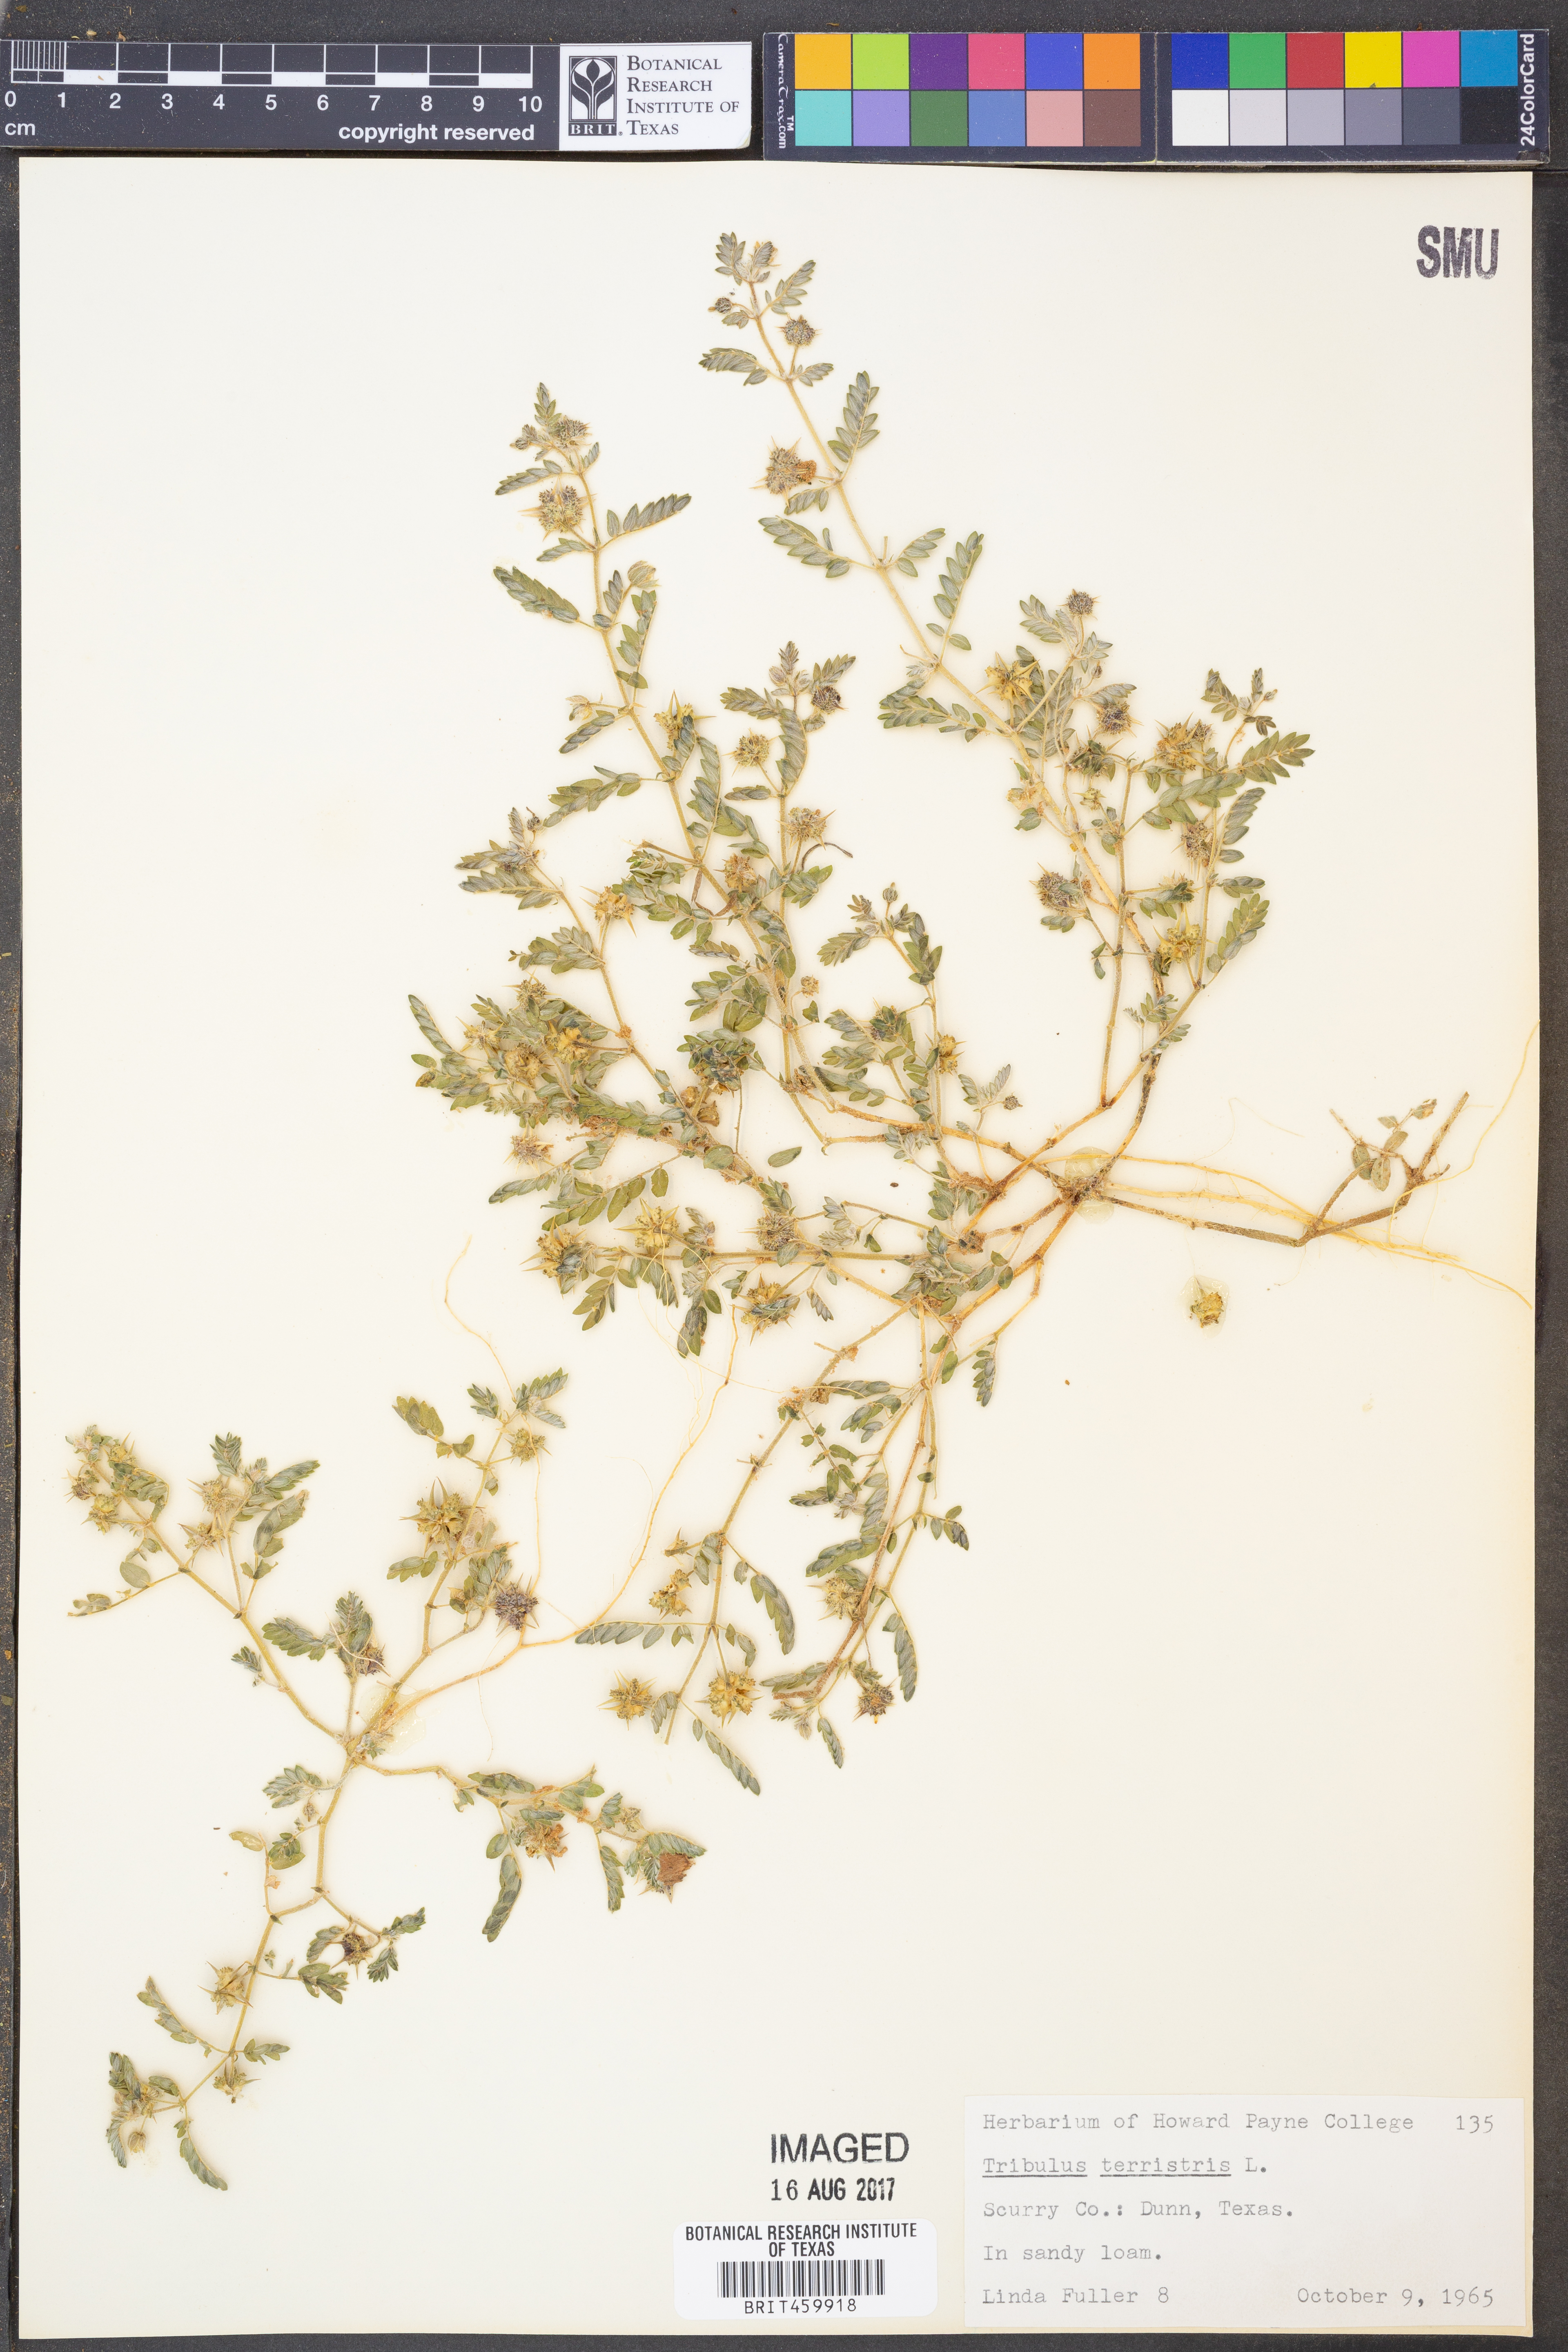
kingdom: Plantae
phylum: Tracheophyta
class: Magnoliopsida
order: Zygophyllales
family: Zygophyllaceae
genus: Tribulus
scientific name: Tribulus terrestris
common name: Puncturevine
